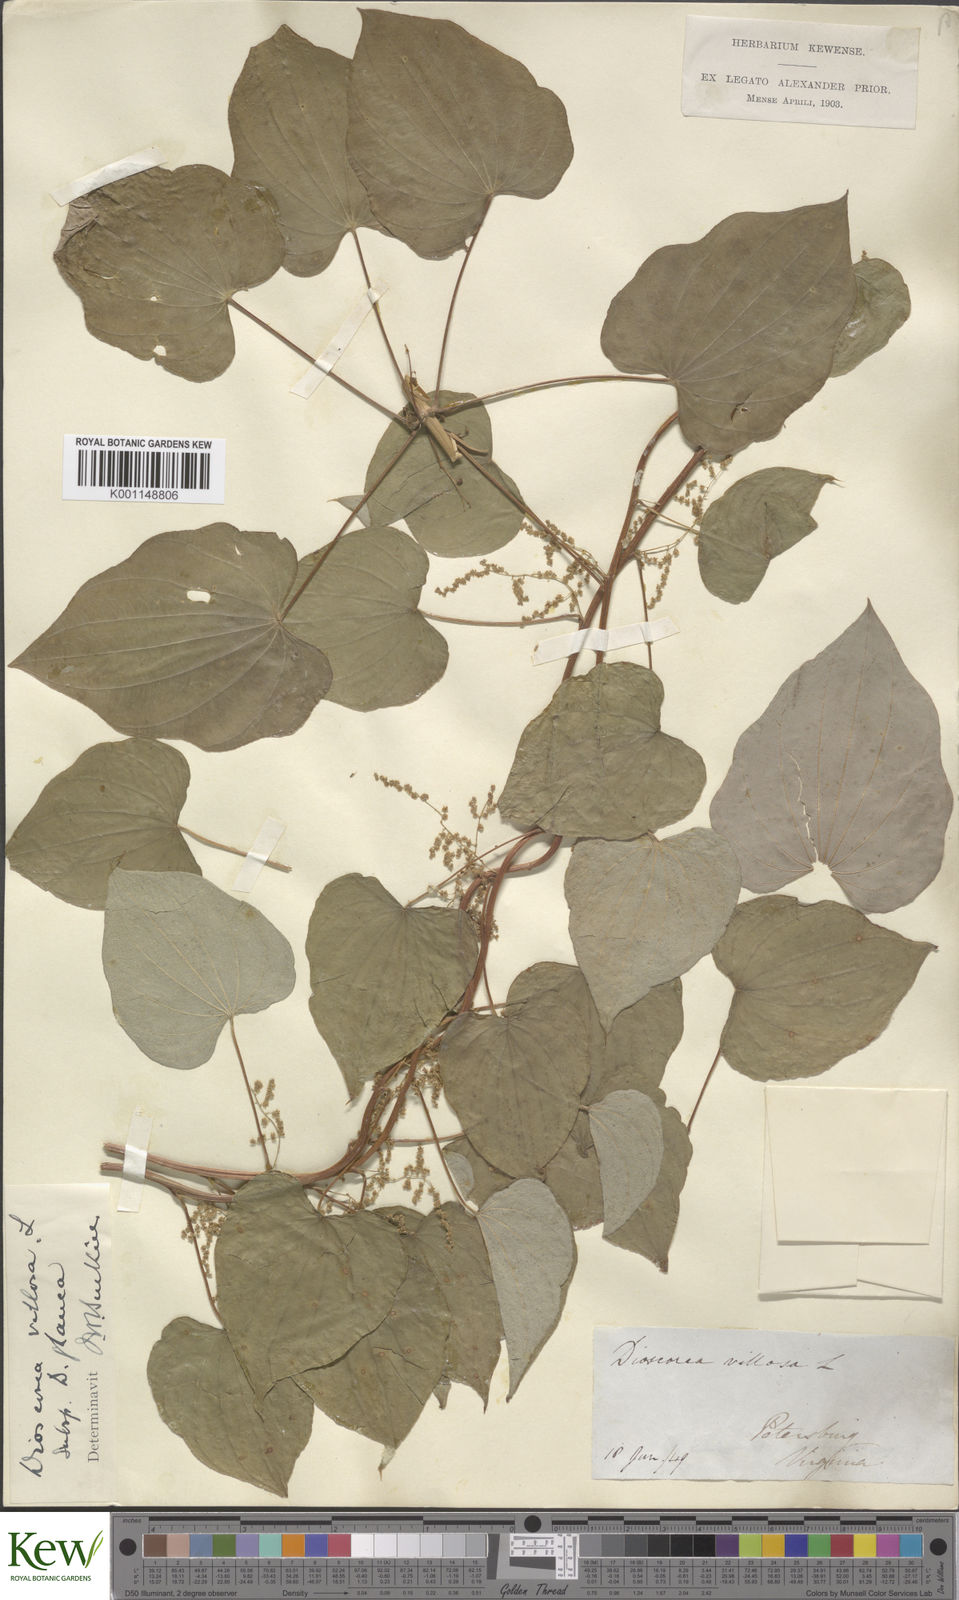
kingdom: Plantae
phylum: Tracheophyta
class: Liliopsida
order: Dioscoreales
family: Dioscoreaceae
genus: Dioscorea
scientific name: Dioscorea villosa
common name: Wild yam
